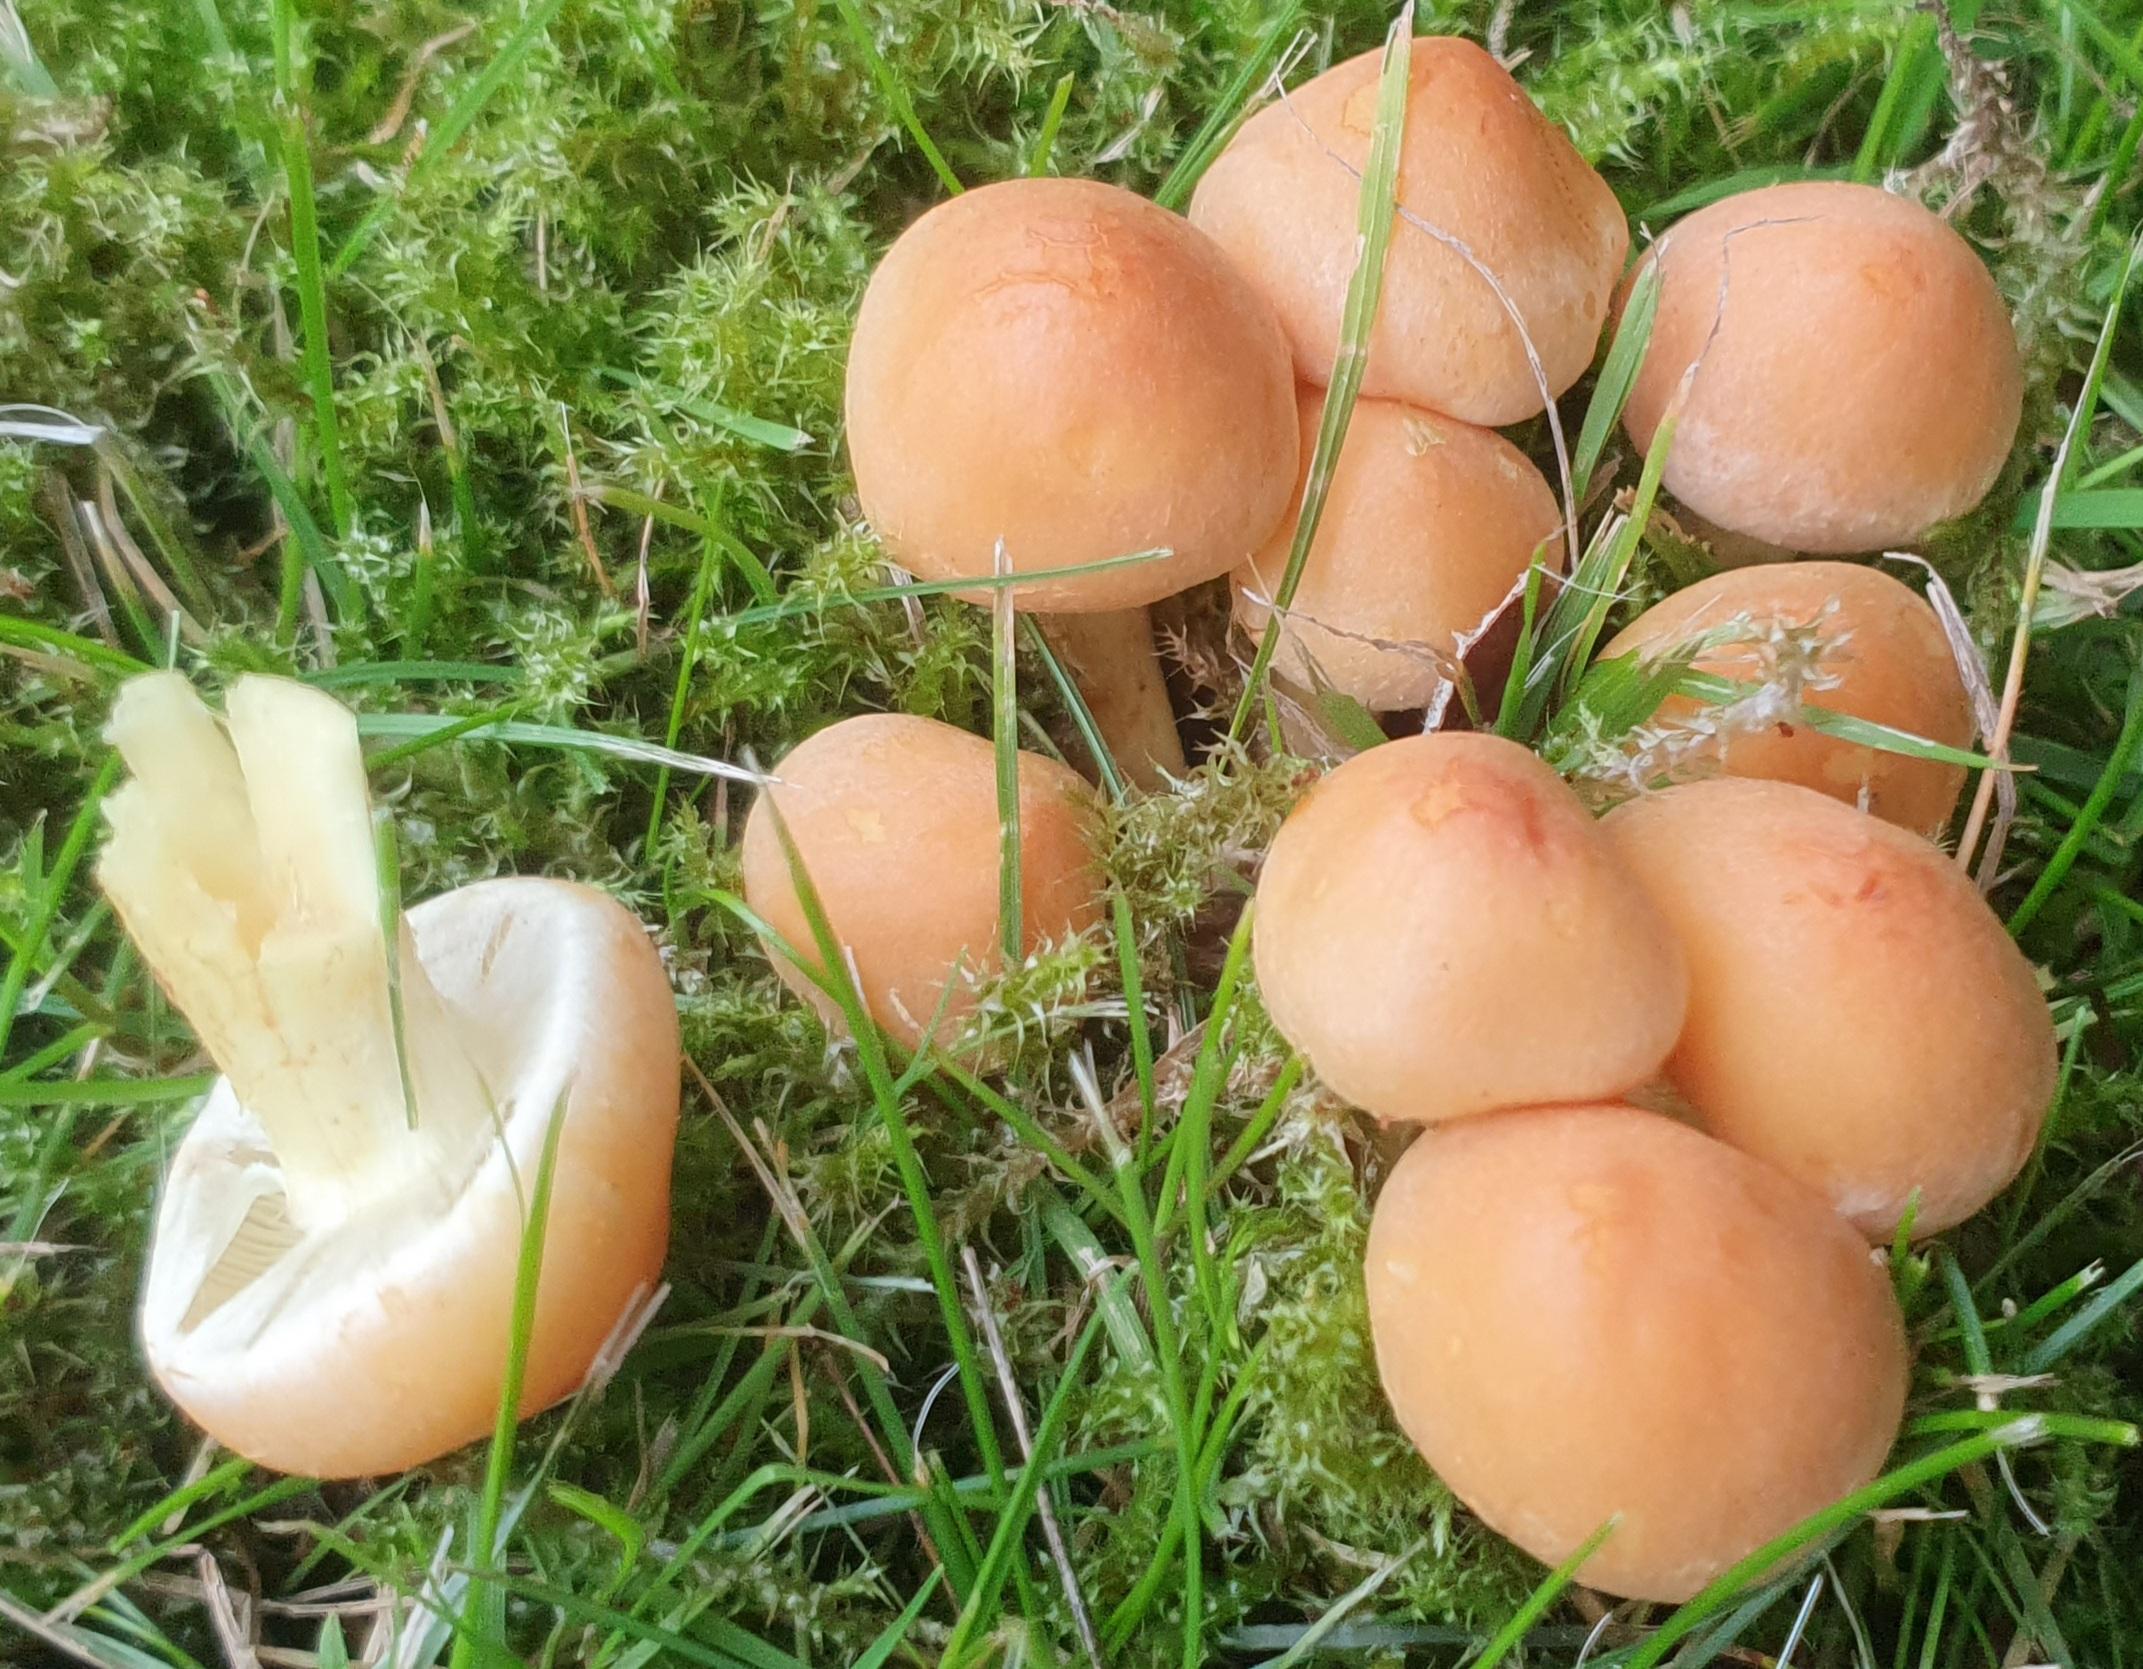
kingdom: Fungi
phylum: Basidiomycota
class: Agaricomycetes
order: Agaricales
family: Strophariaceae
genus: Hypholoma
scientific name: Hypholoma fasciculare
